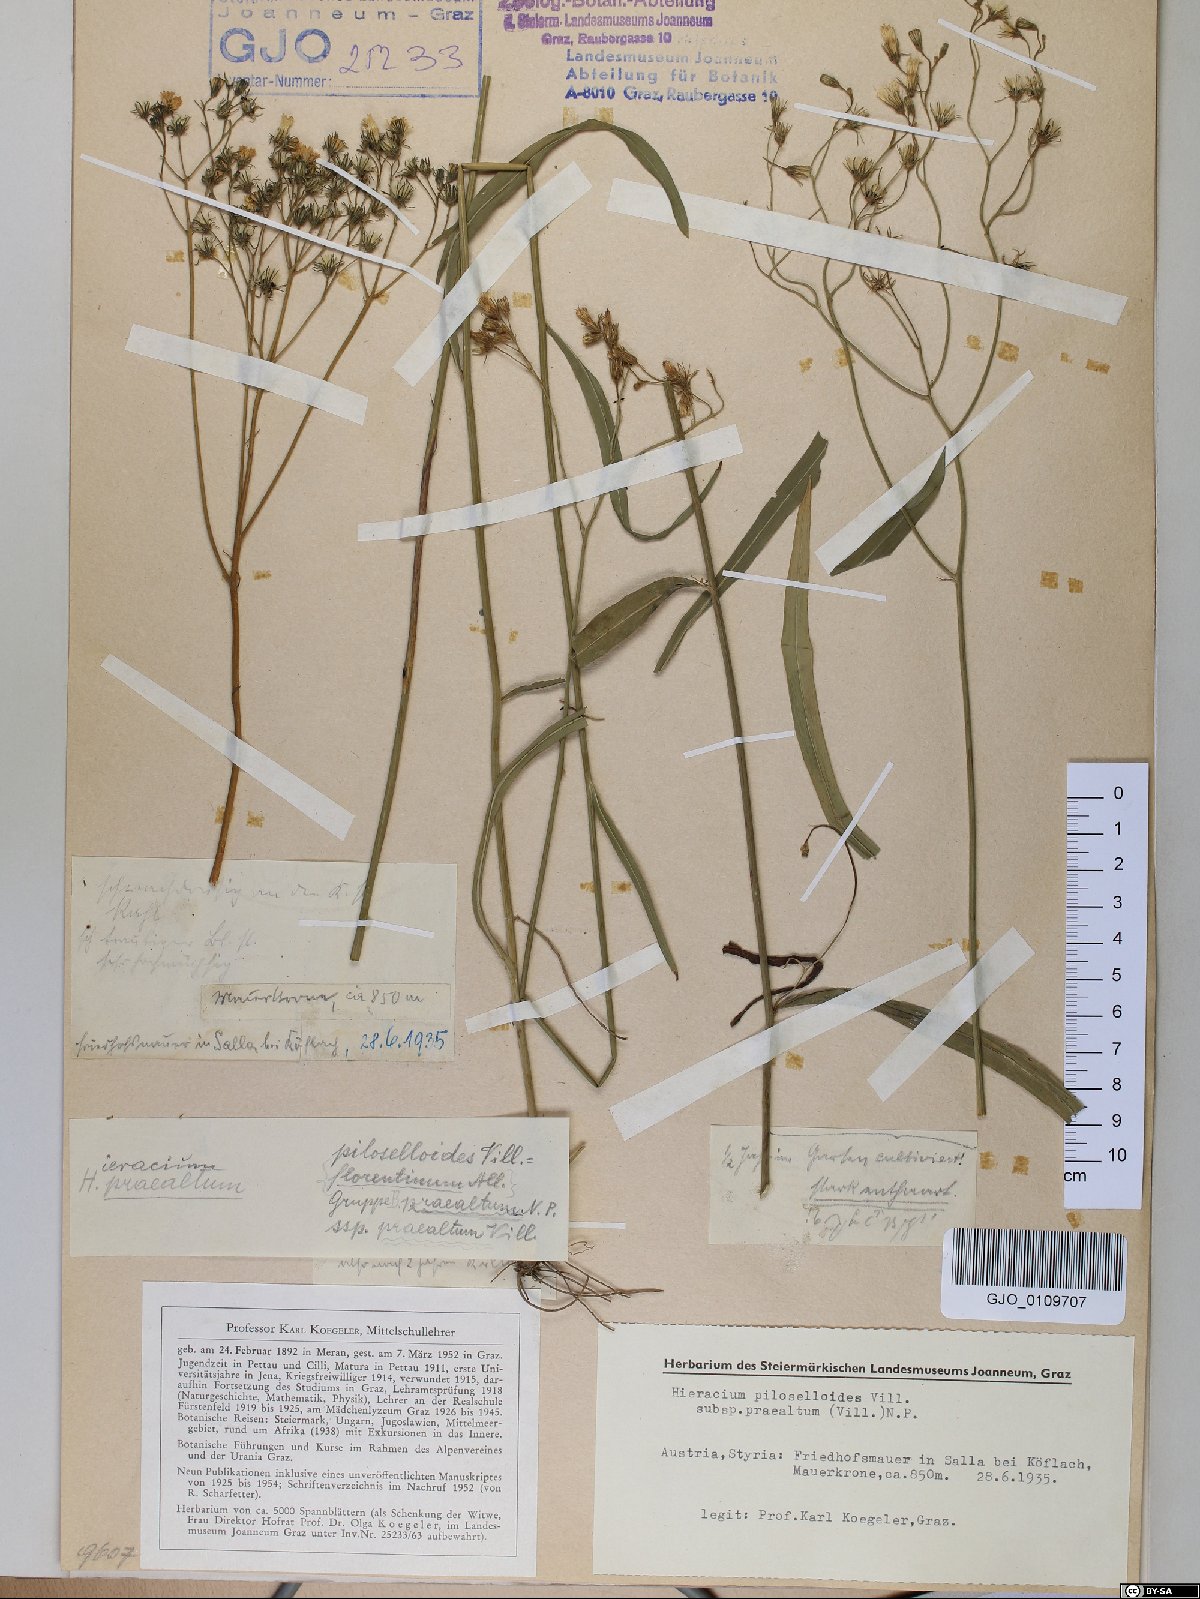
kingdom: Plantae
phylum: Tracheophyta
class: Magnoliopsida
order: Asterales
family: Asteraceae
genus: Pilosella
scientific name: Pilosella piloselloides
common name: Glaucous king-devil
